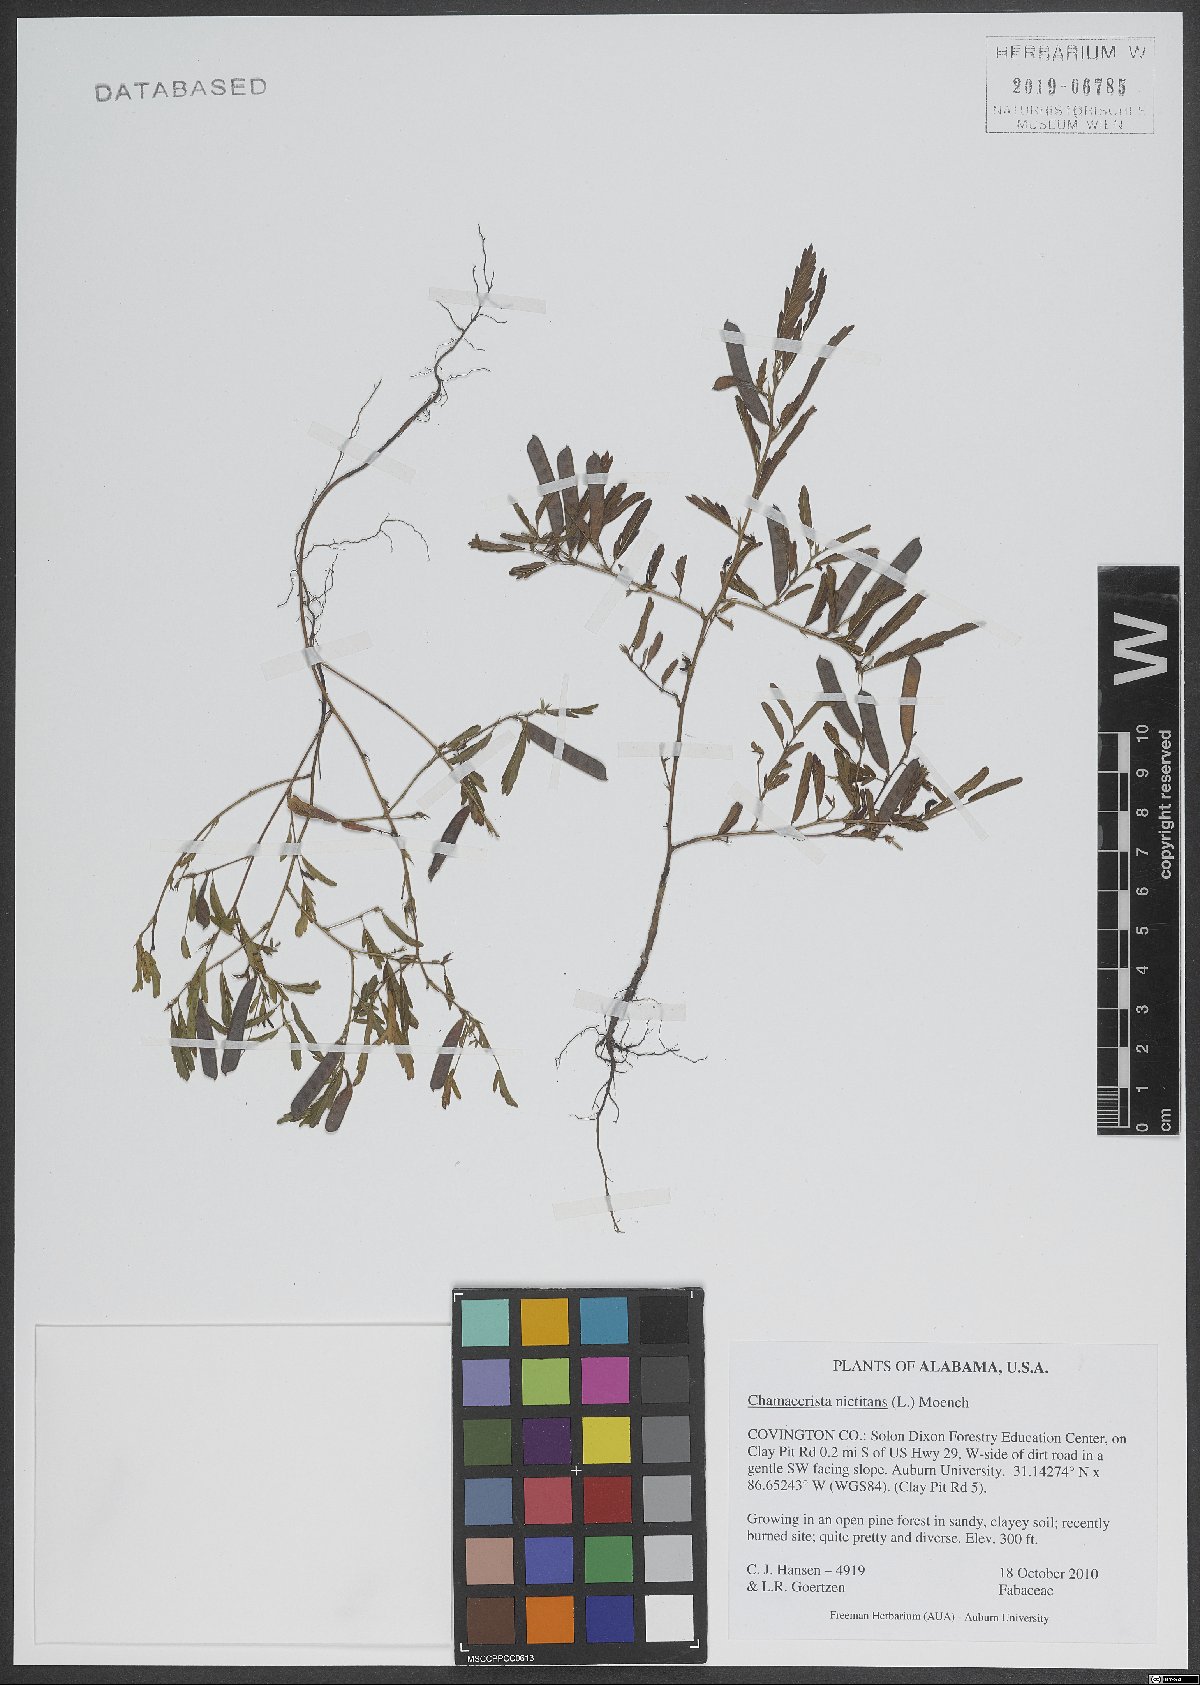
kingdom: Plantae
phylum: Tracheophyta
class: Magnoliopsida
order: Fabales
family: Fabaceae
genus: Chamaecrista
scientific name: Chamaecrista nictitans
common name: Sensitive cassia
